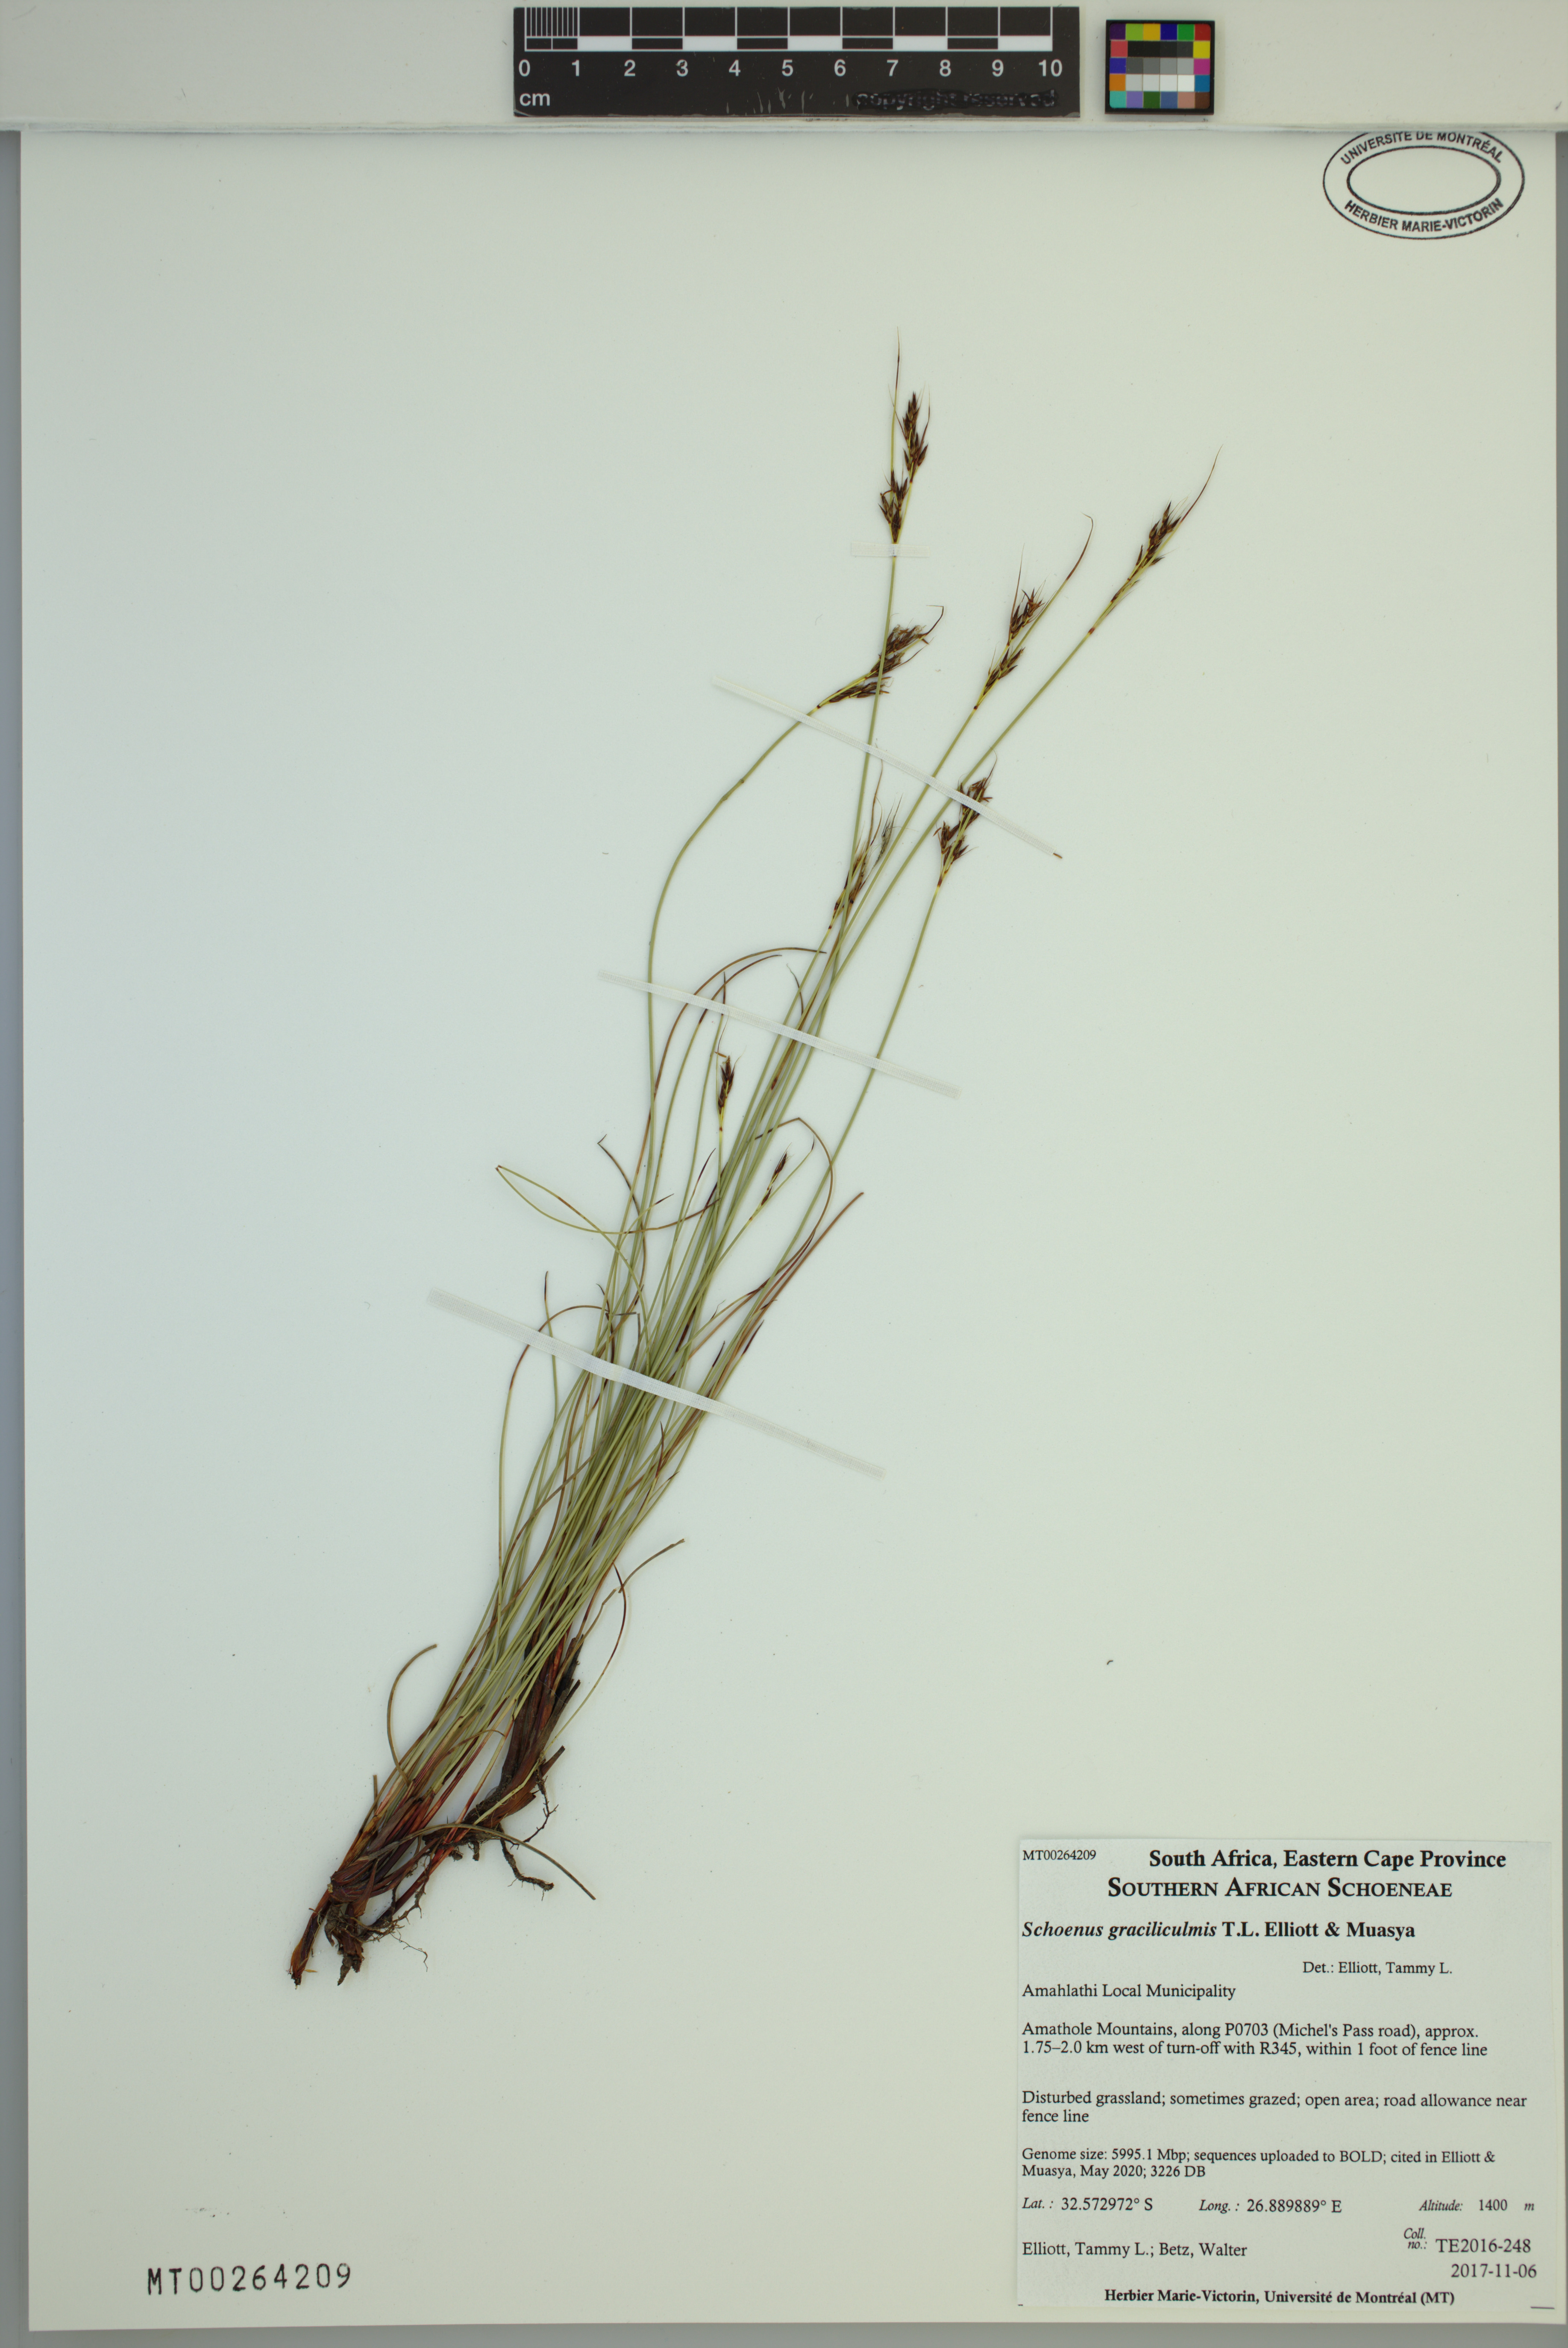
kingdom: Plantae
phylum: Tracheophyta
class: Liliopsida
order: Poales
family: Cyperaceae
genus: Schoenus
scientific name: Schoenus graciliculmis
